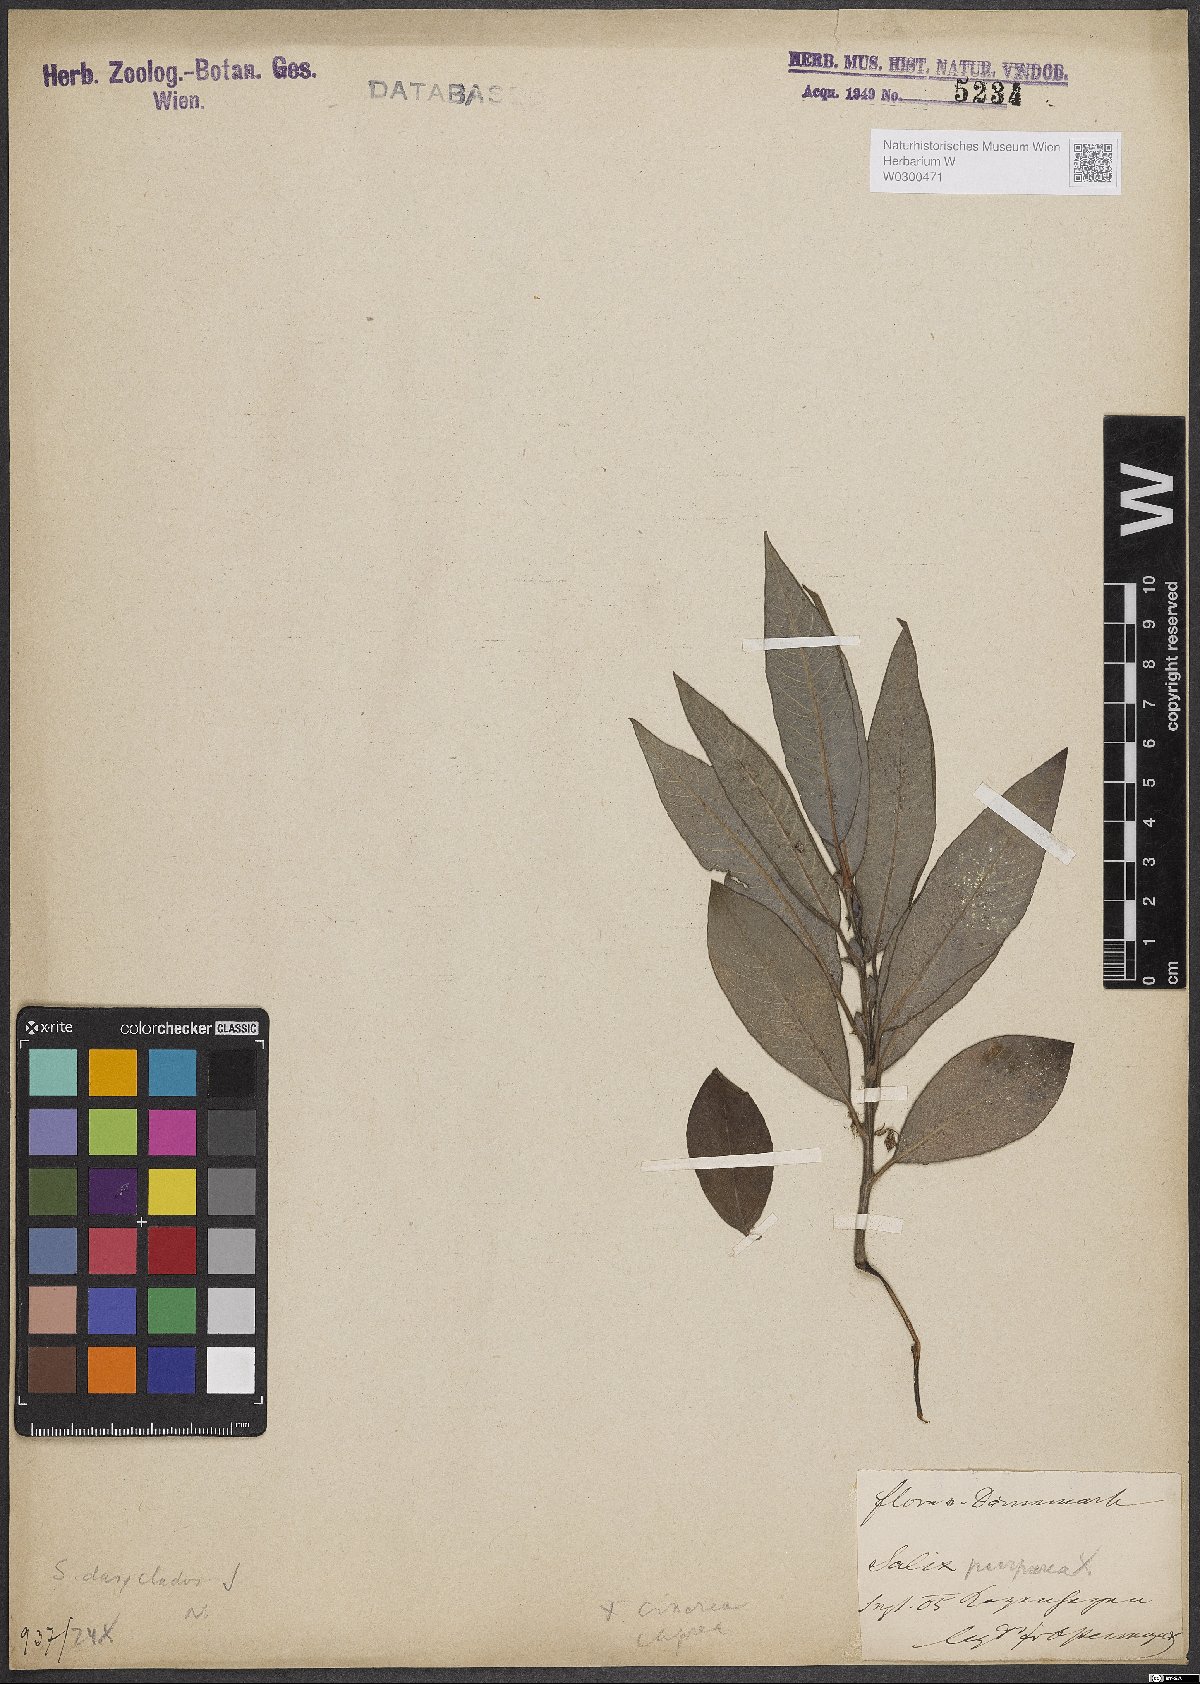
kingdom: Plantae
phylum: Tracheophyta
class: Magnoliopsida
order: Malpighiales
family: Salicaceae
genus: Salix
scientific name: Salix gmelinii
